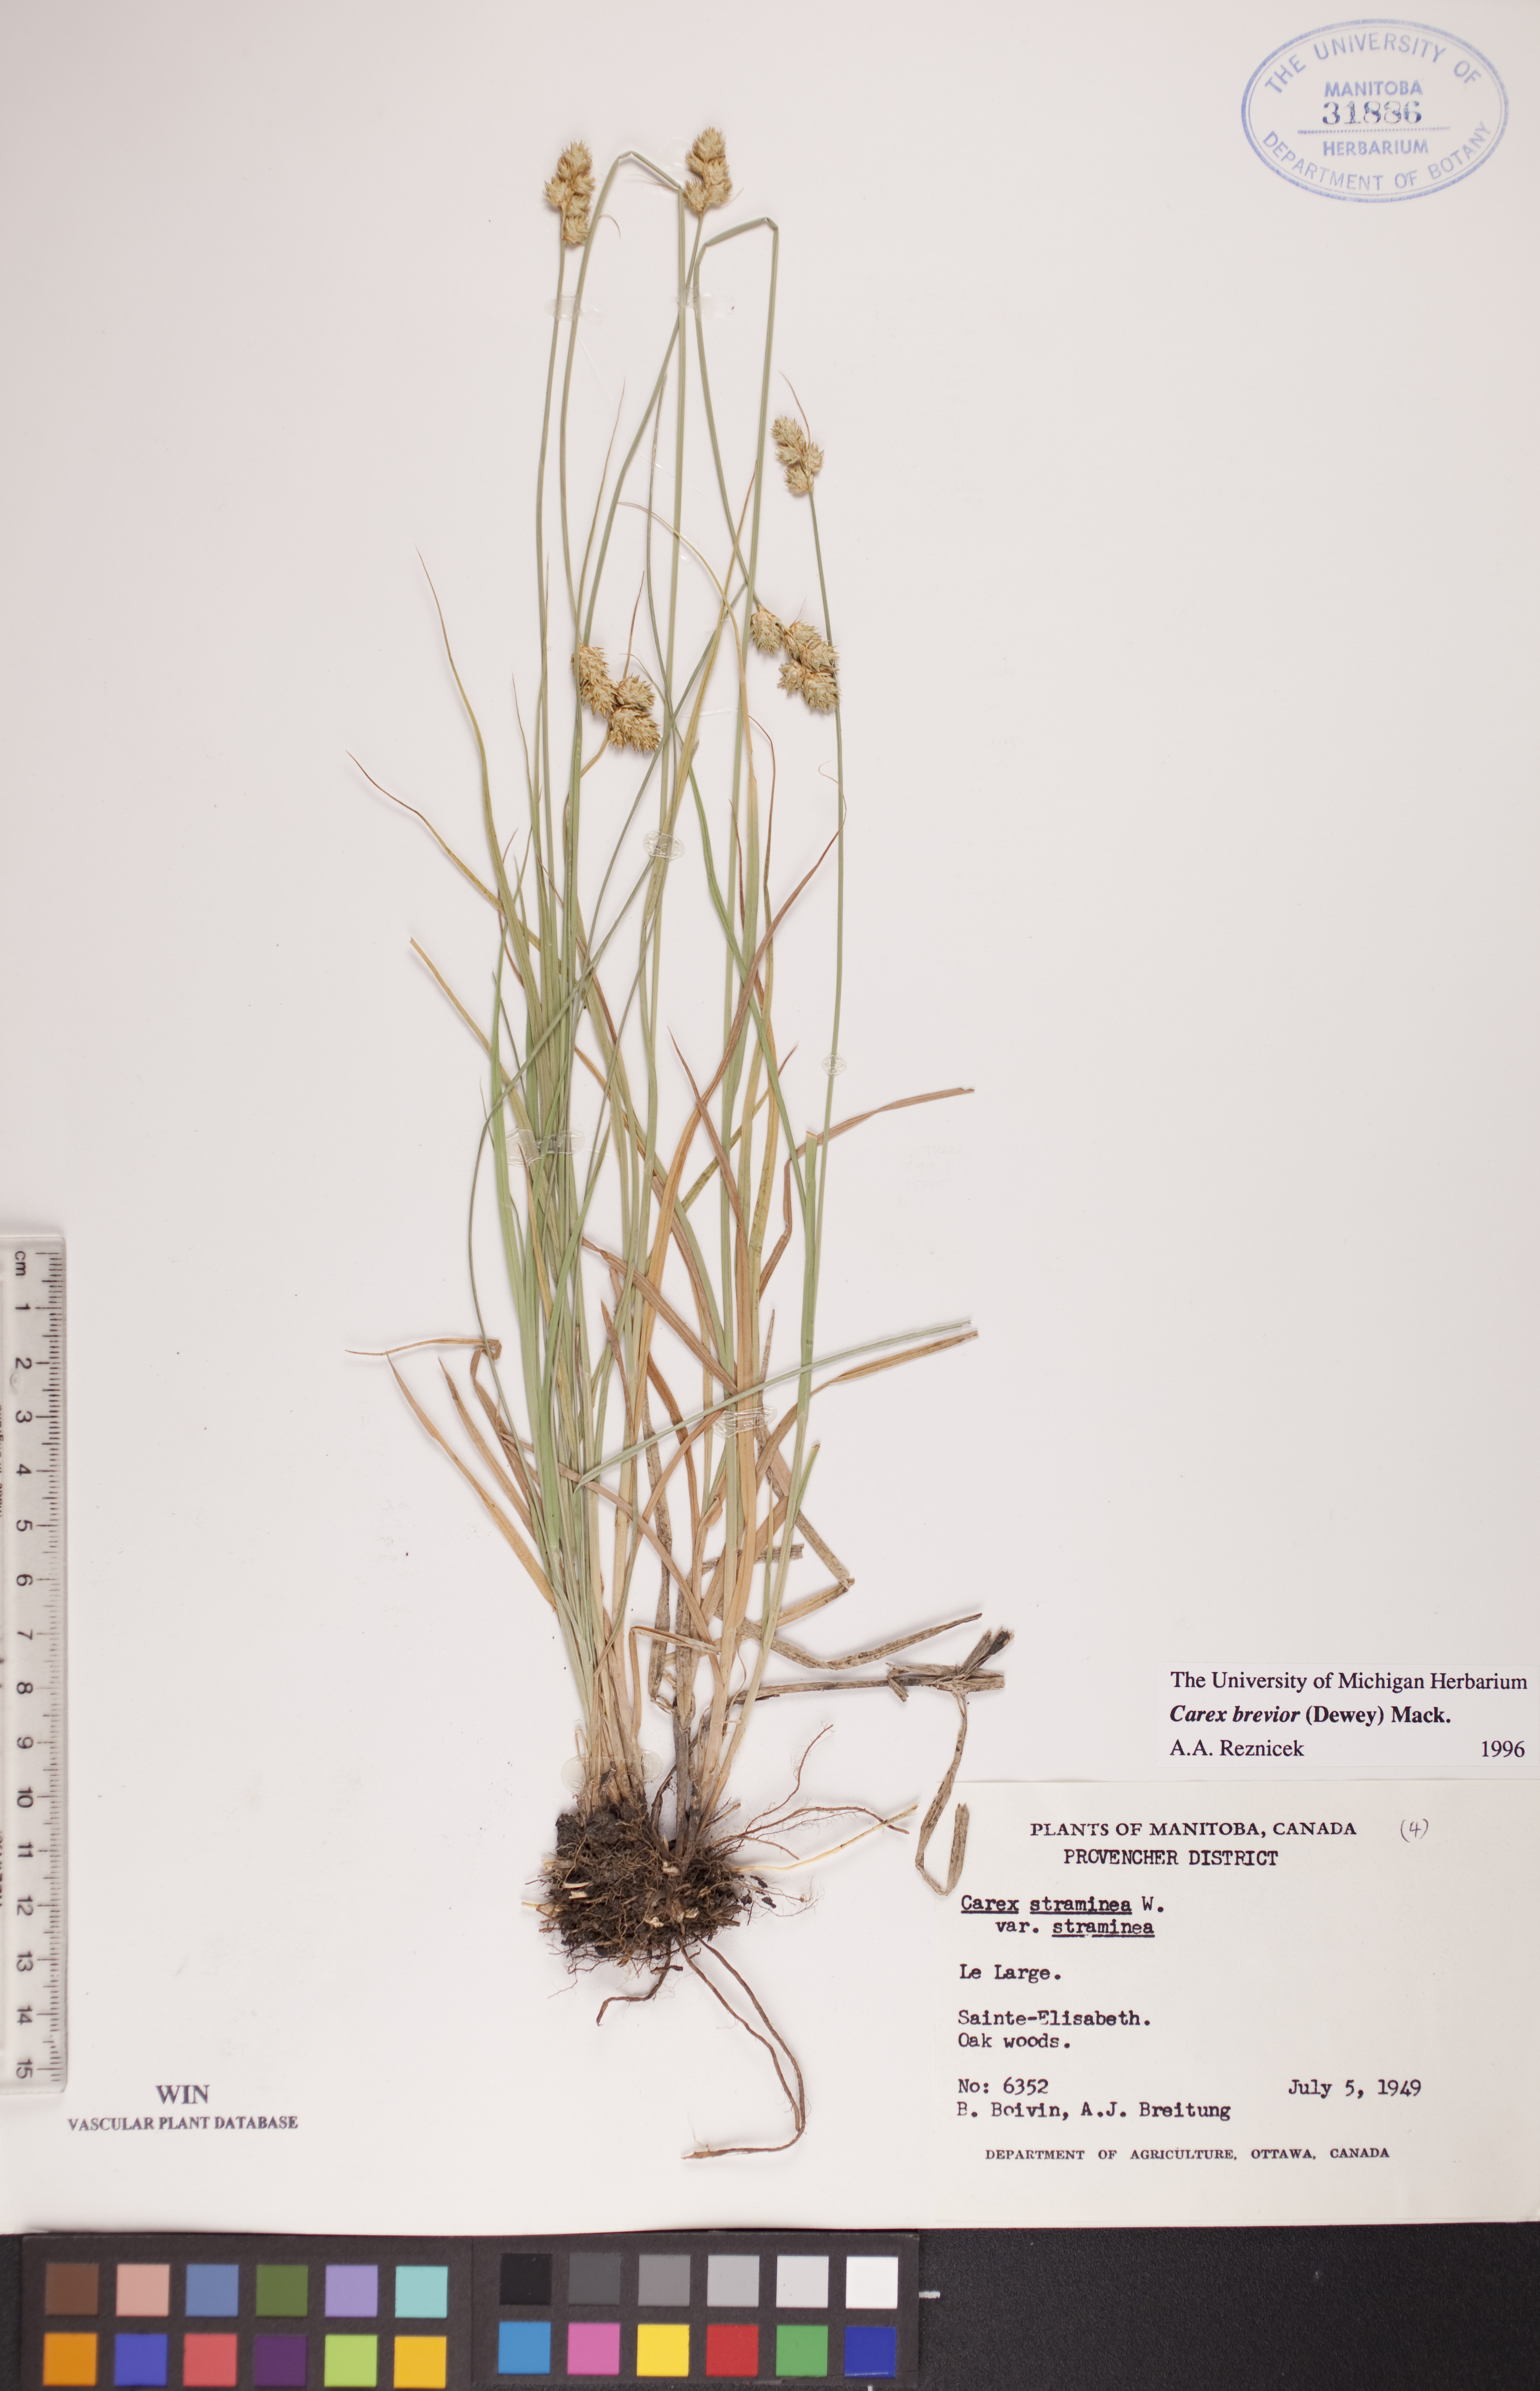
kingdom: Plantae
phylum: Tracheophyta
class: Liliopsida
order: Poales
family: Cyperaceae
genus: Carex
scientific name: Carex brevior
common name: Brevior sedge
